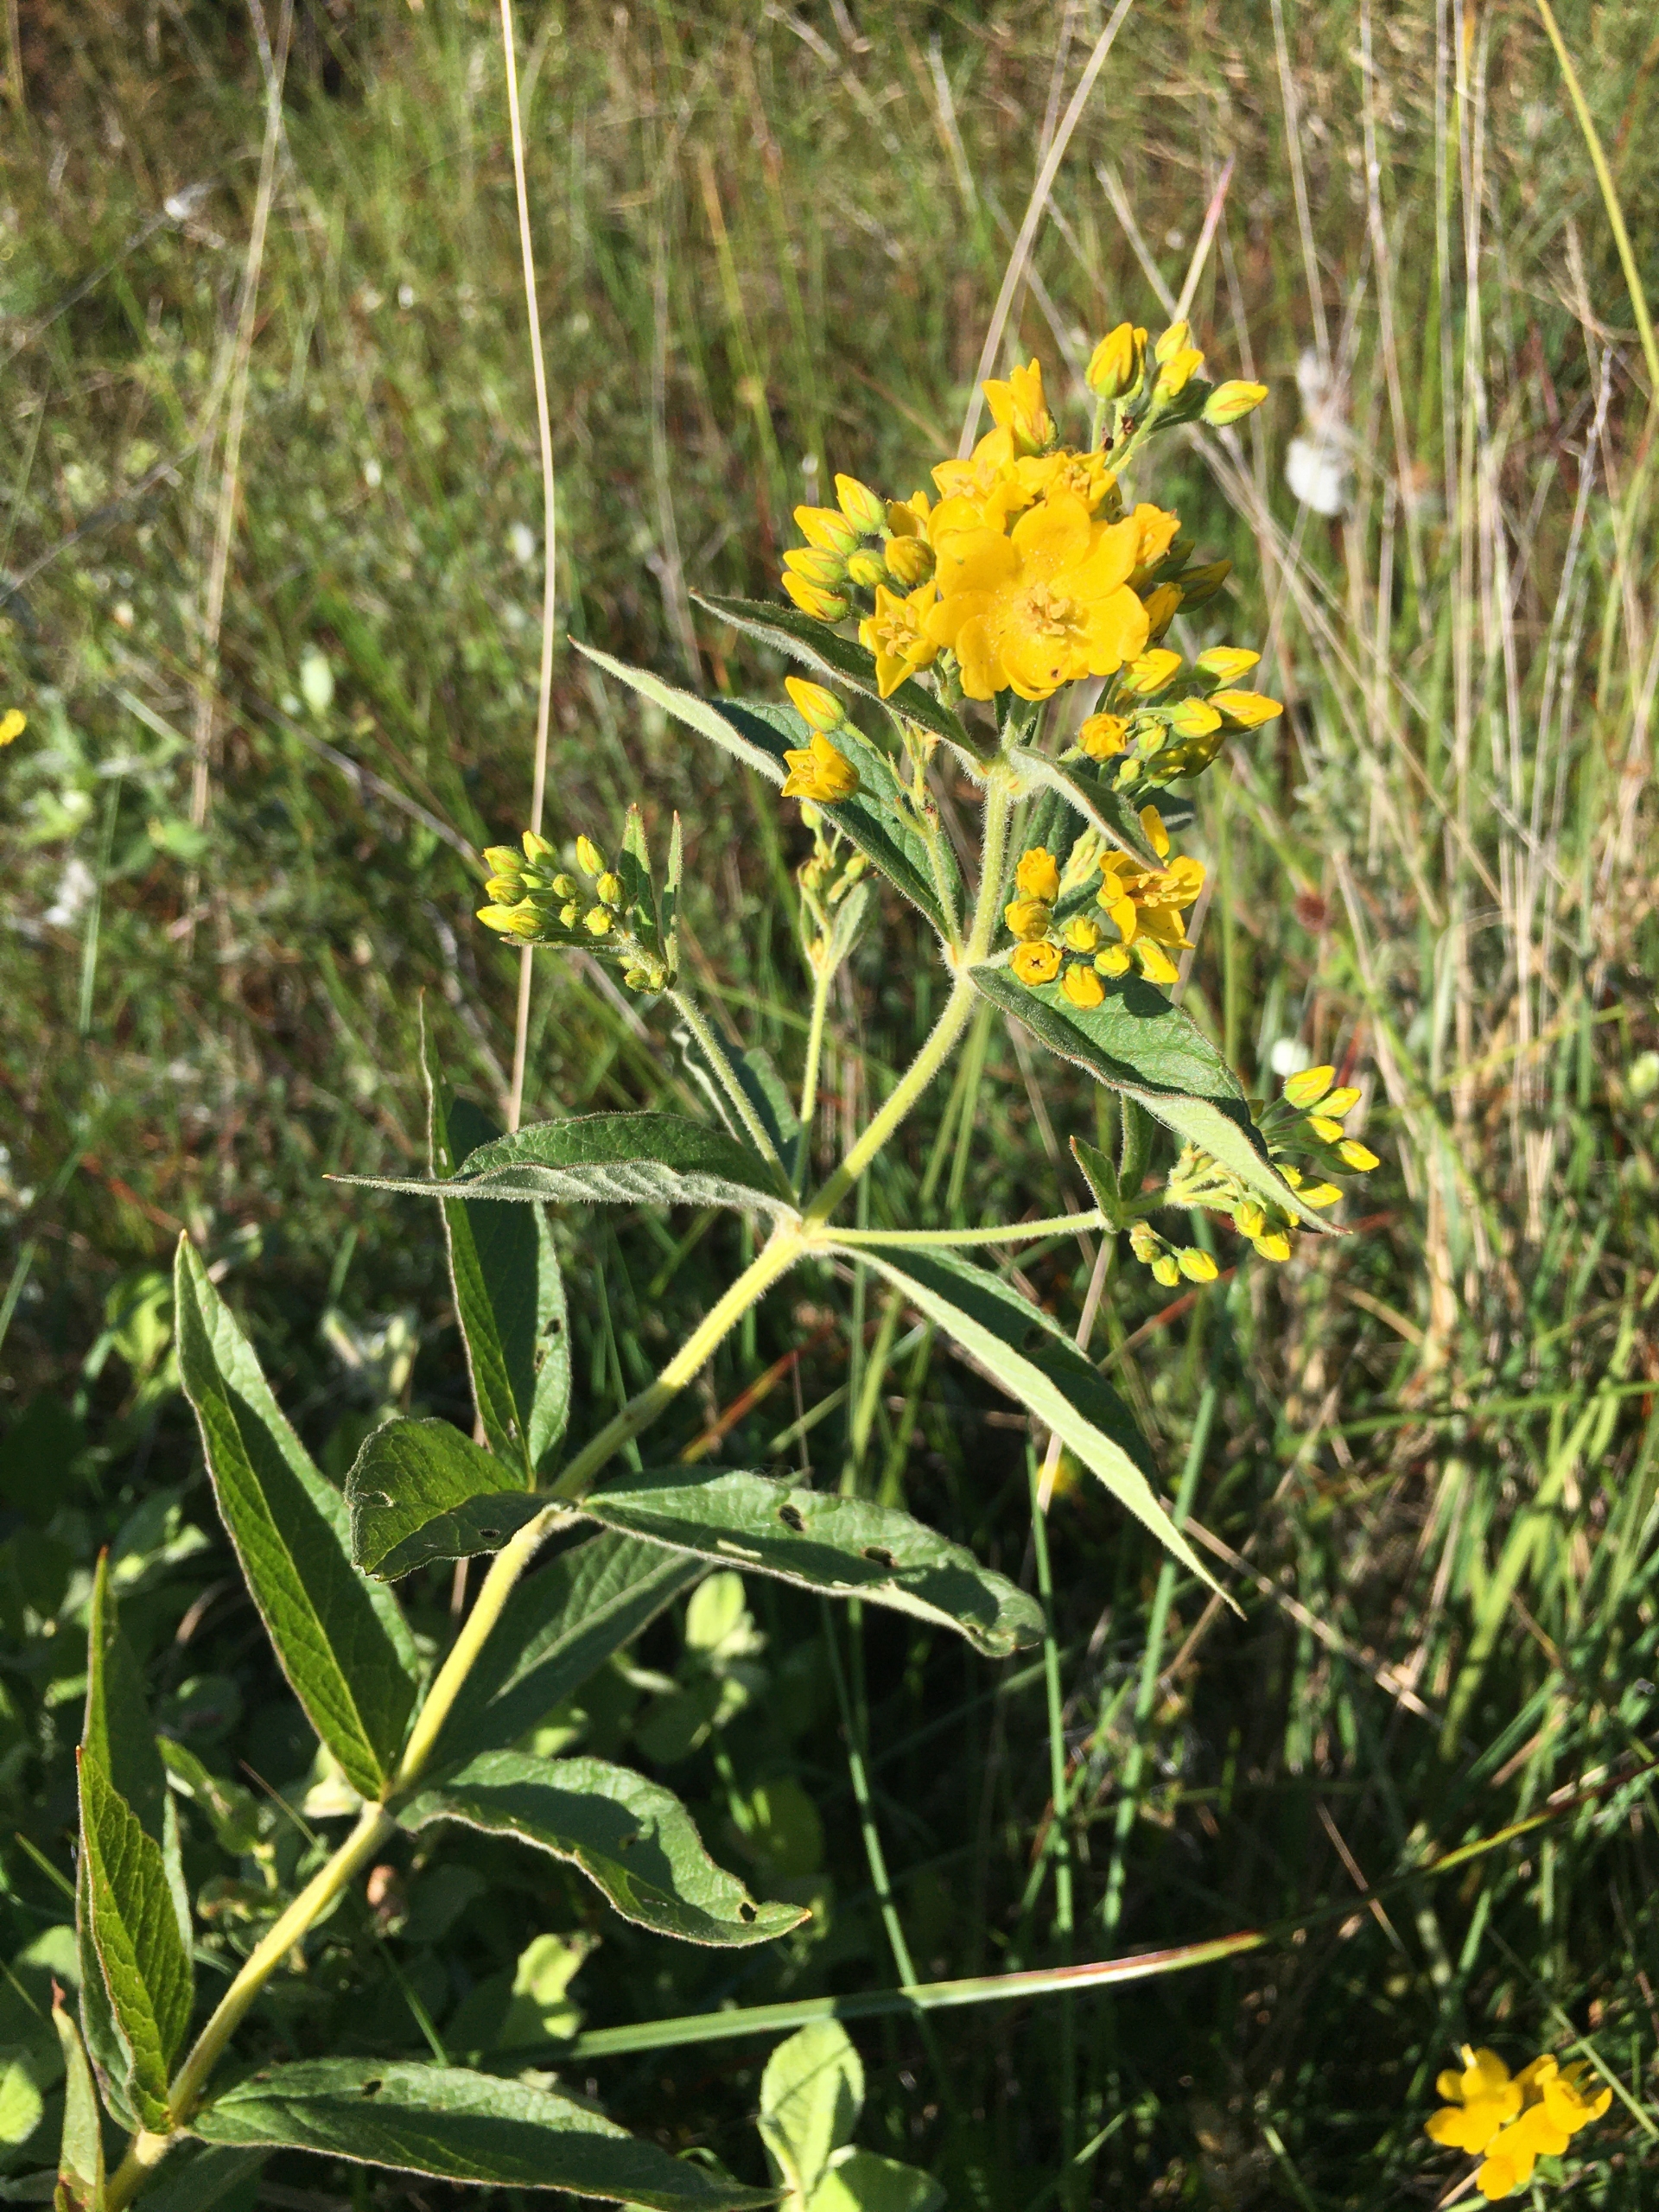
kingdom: Plantae
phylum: Tracheophyta
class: Magnoliopsida
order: Ericales
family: Primulaceae
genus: Lysimachia
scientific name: Lysimachia vulgaris
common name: Almindelig fredløs
